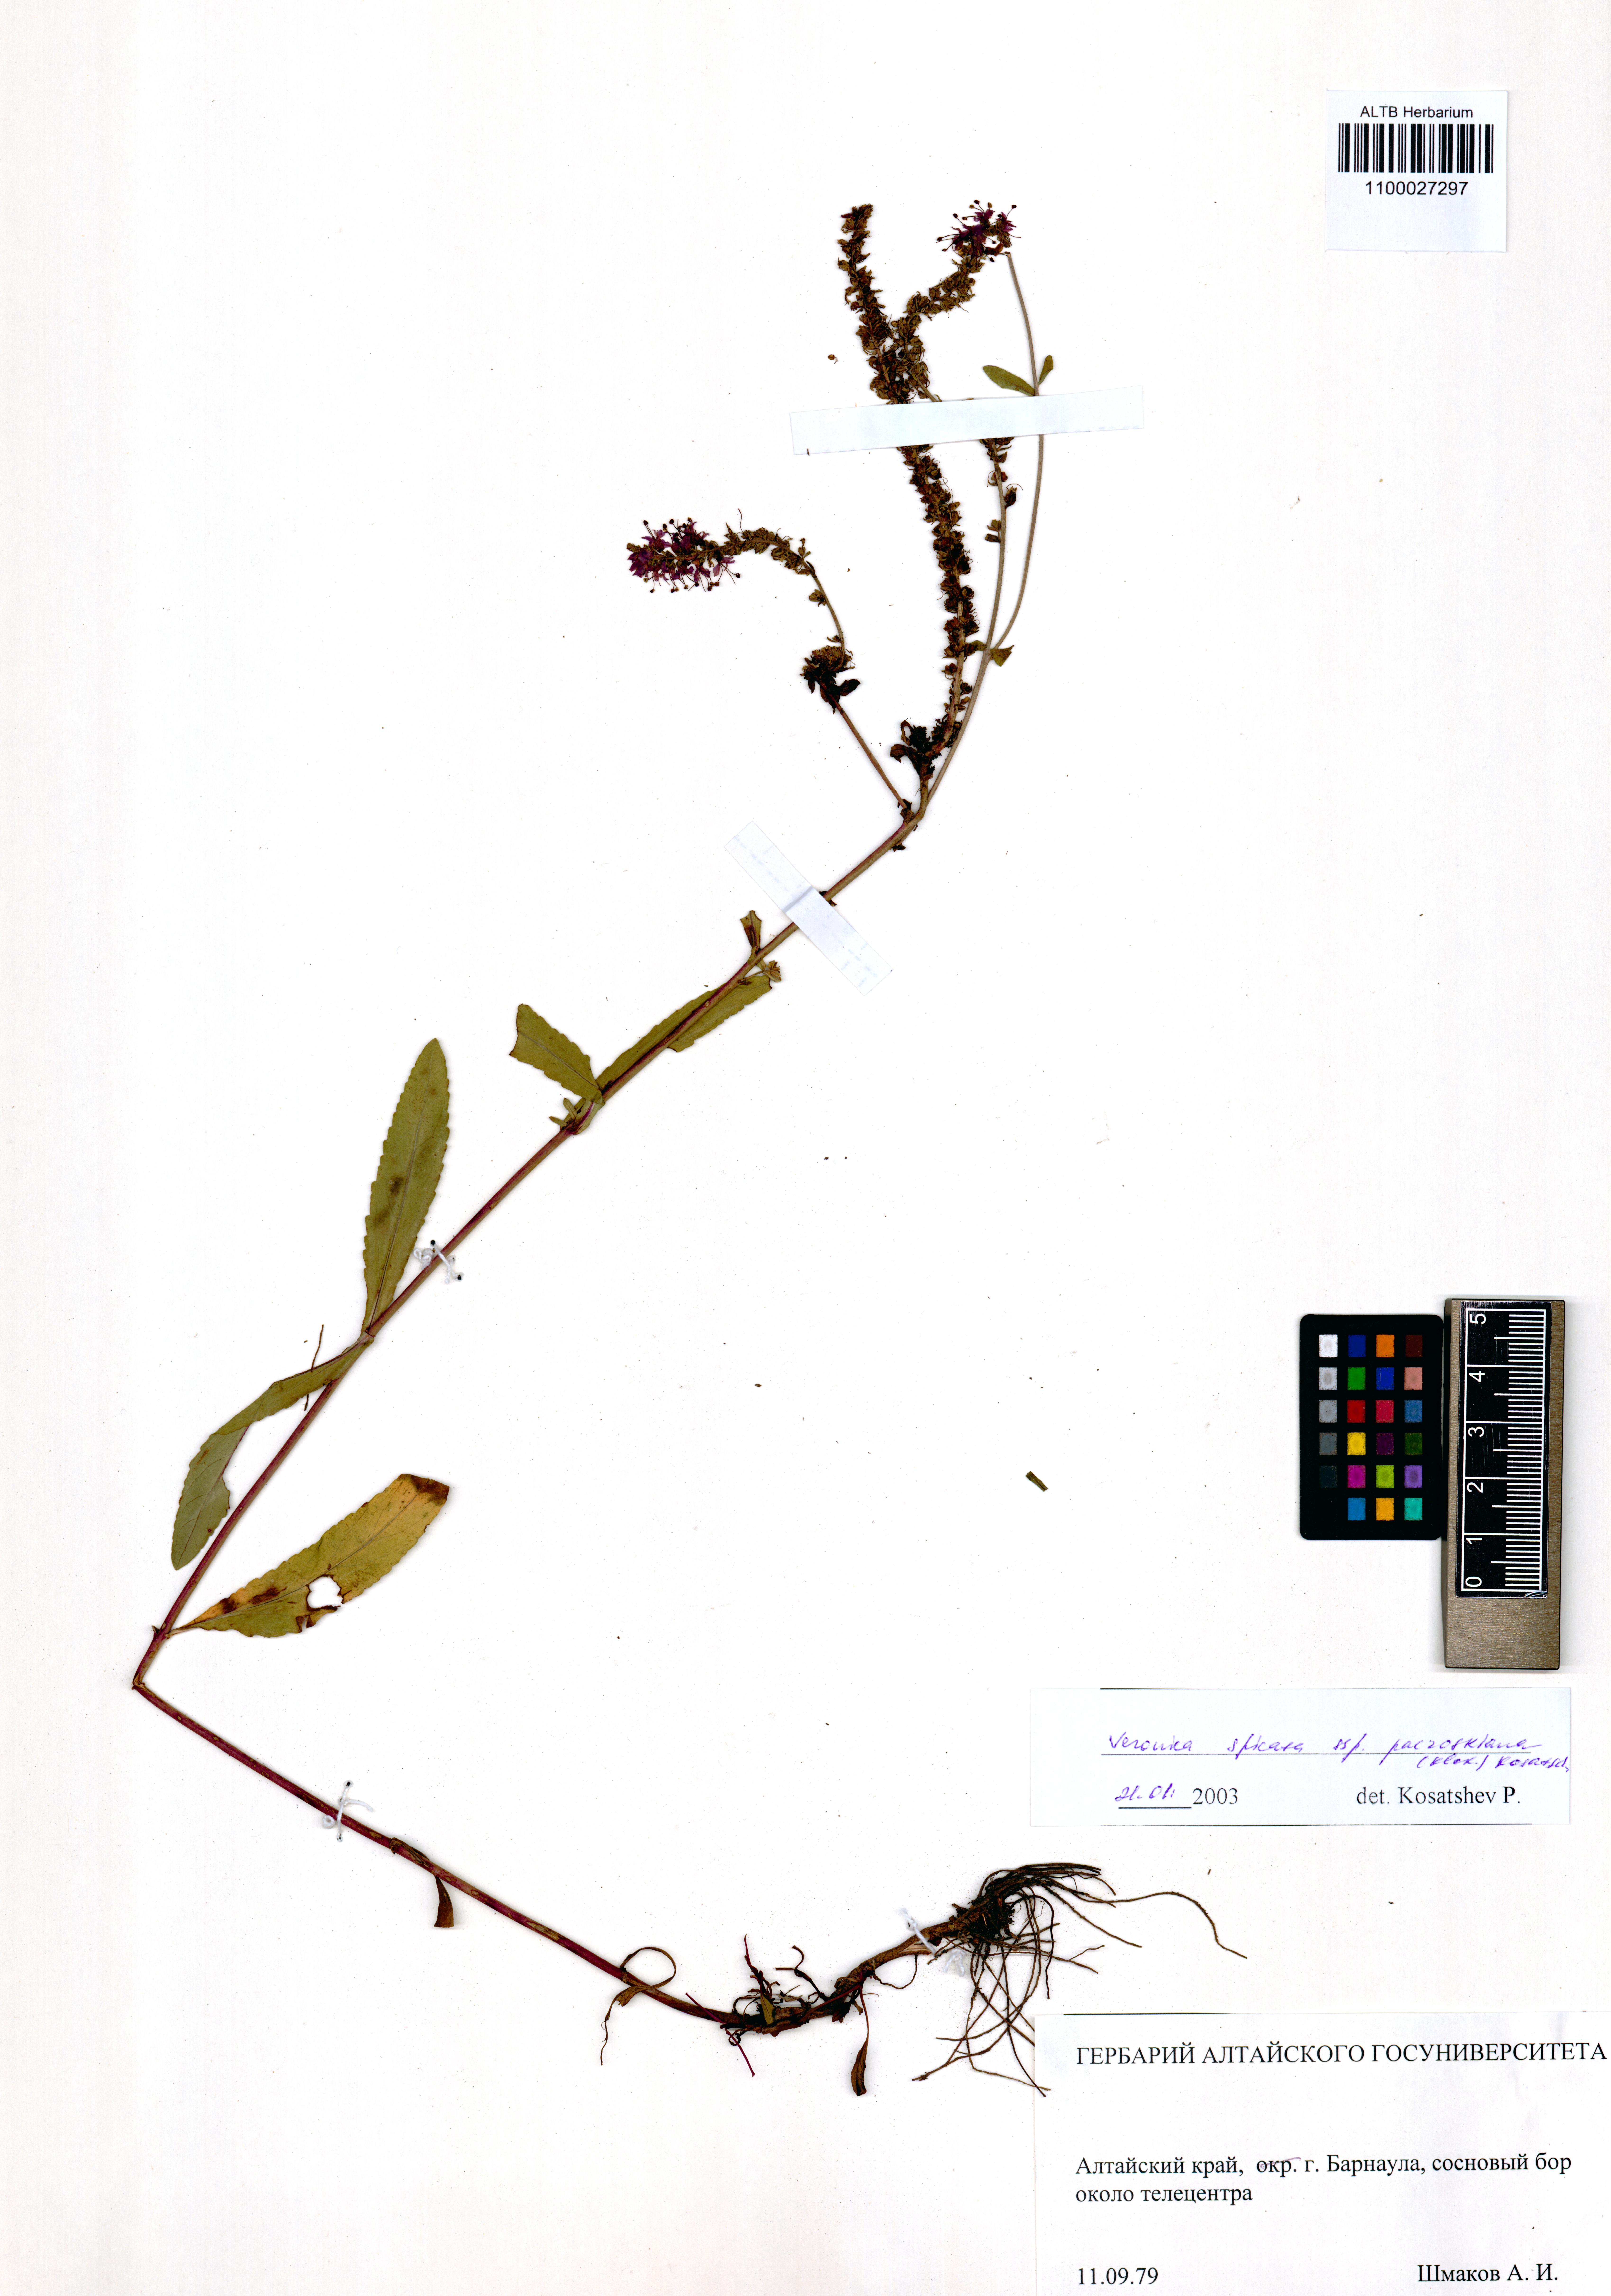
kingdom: Plantae
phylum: Tracheophyta
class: Magnoliopsida
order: Lamiales
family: Plantaginaceae
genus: Veronica
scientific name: Veronica spicata
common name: Spiked speedwell
